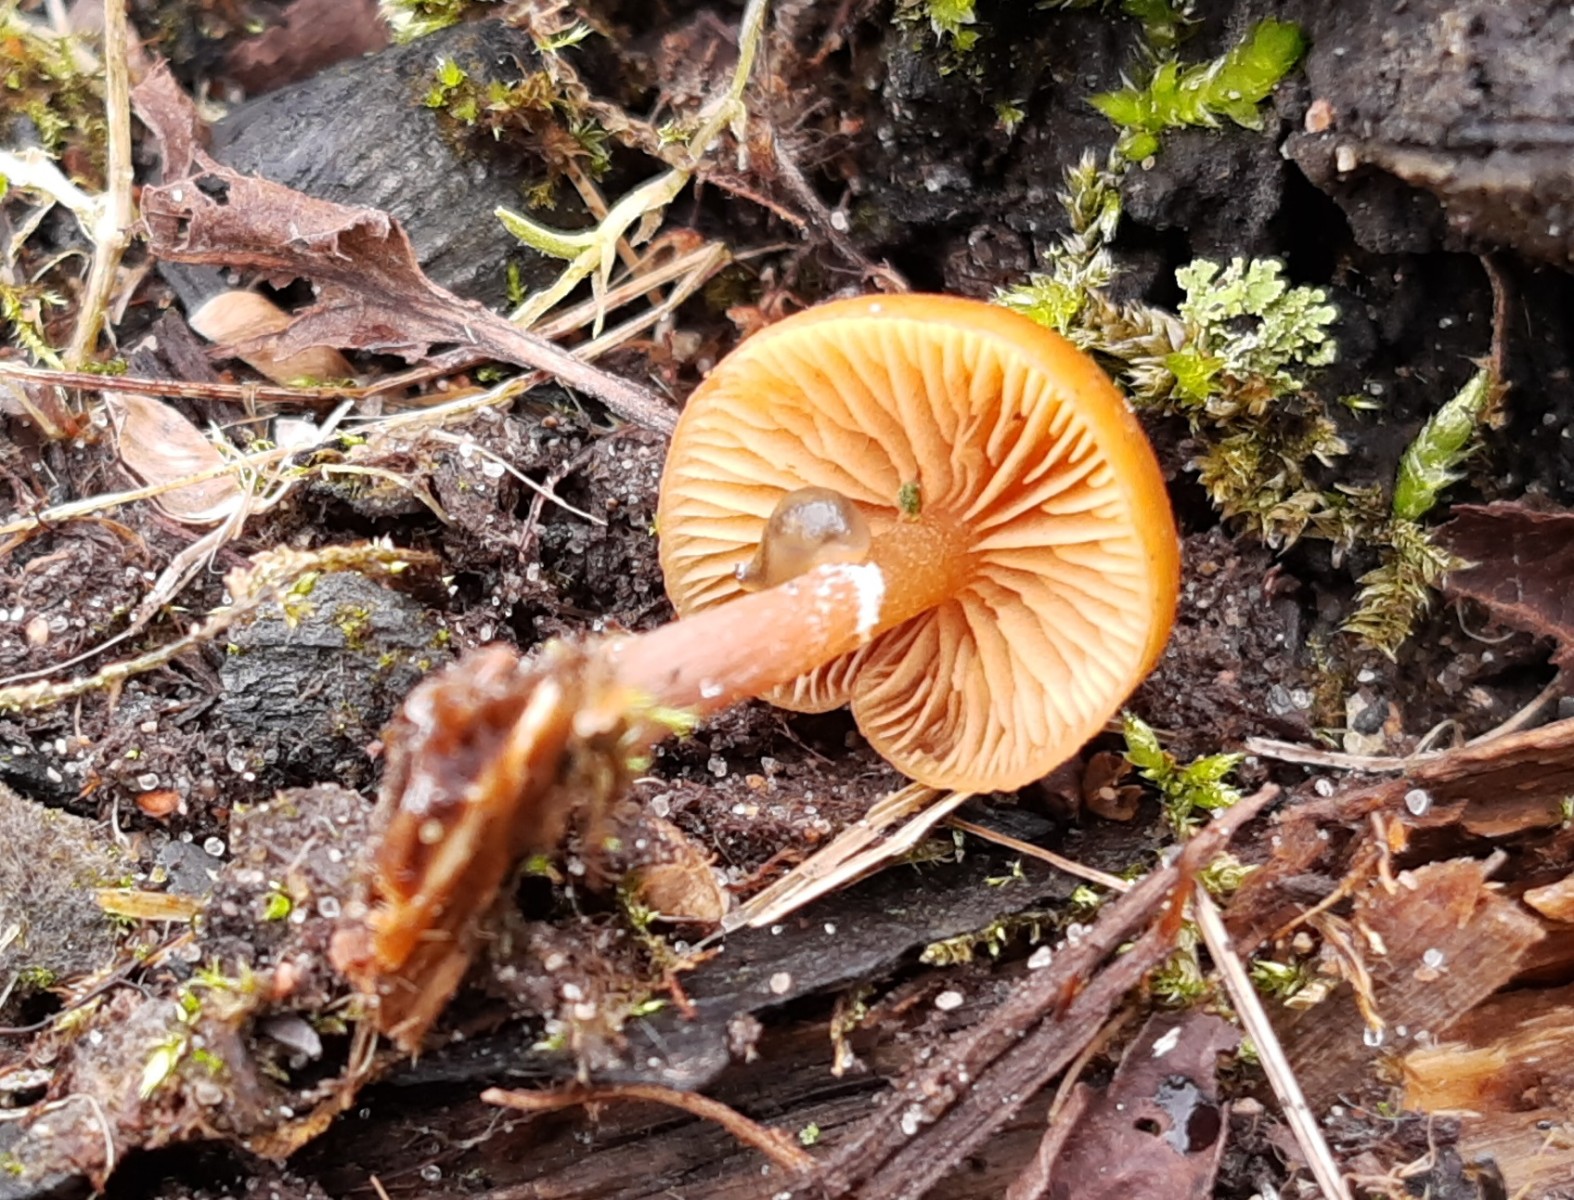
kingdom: Fungi
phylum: Basidiomycota
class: Agaricomycetes
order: Agaricales
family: Tubariaceae
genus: Tubaria
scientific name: Tubaria furfuracea
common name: kliddet fnughat
